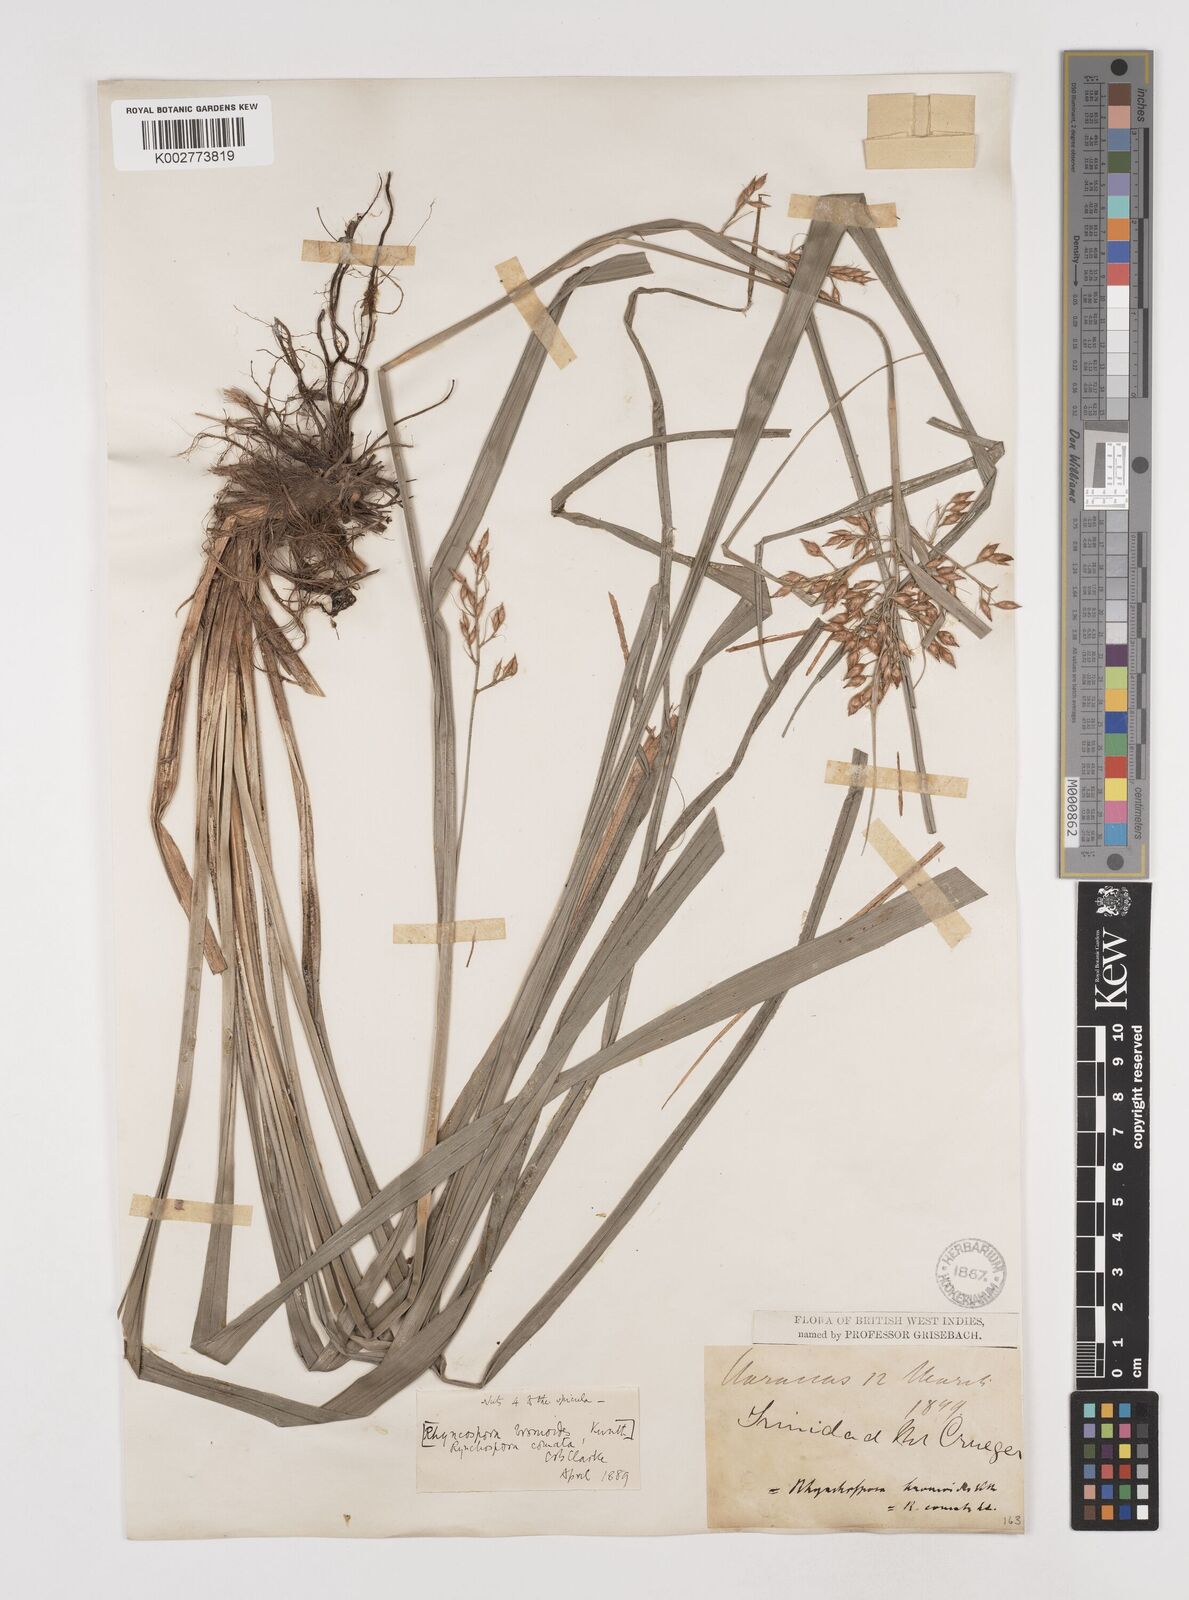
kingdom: Plantae
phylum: Tracheophyta
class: Liliopsida
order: Poales
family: Cyperaceae
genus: Rhynchospora
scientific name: Rhynchospora comata
